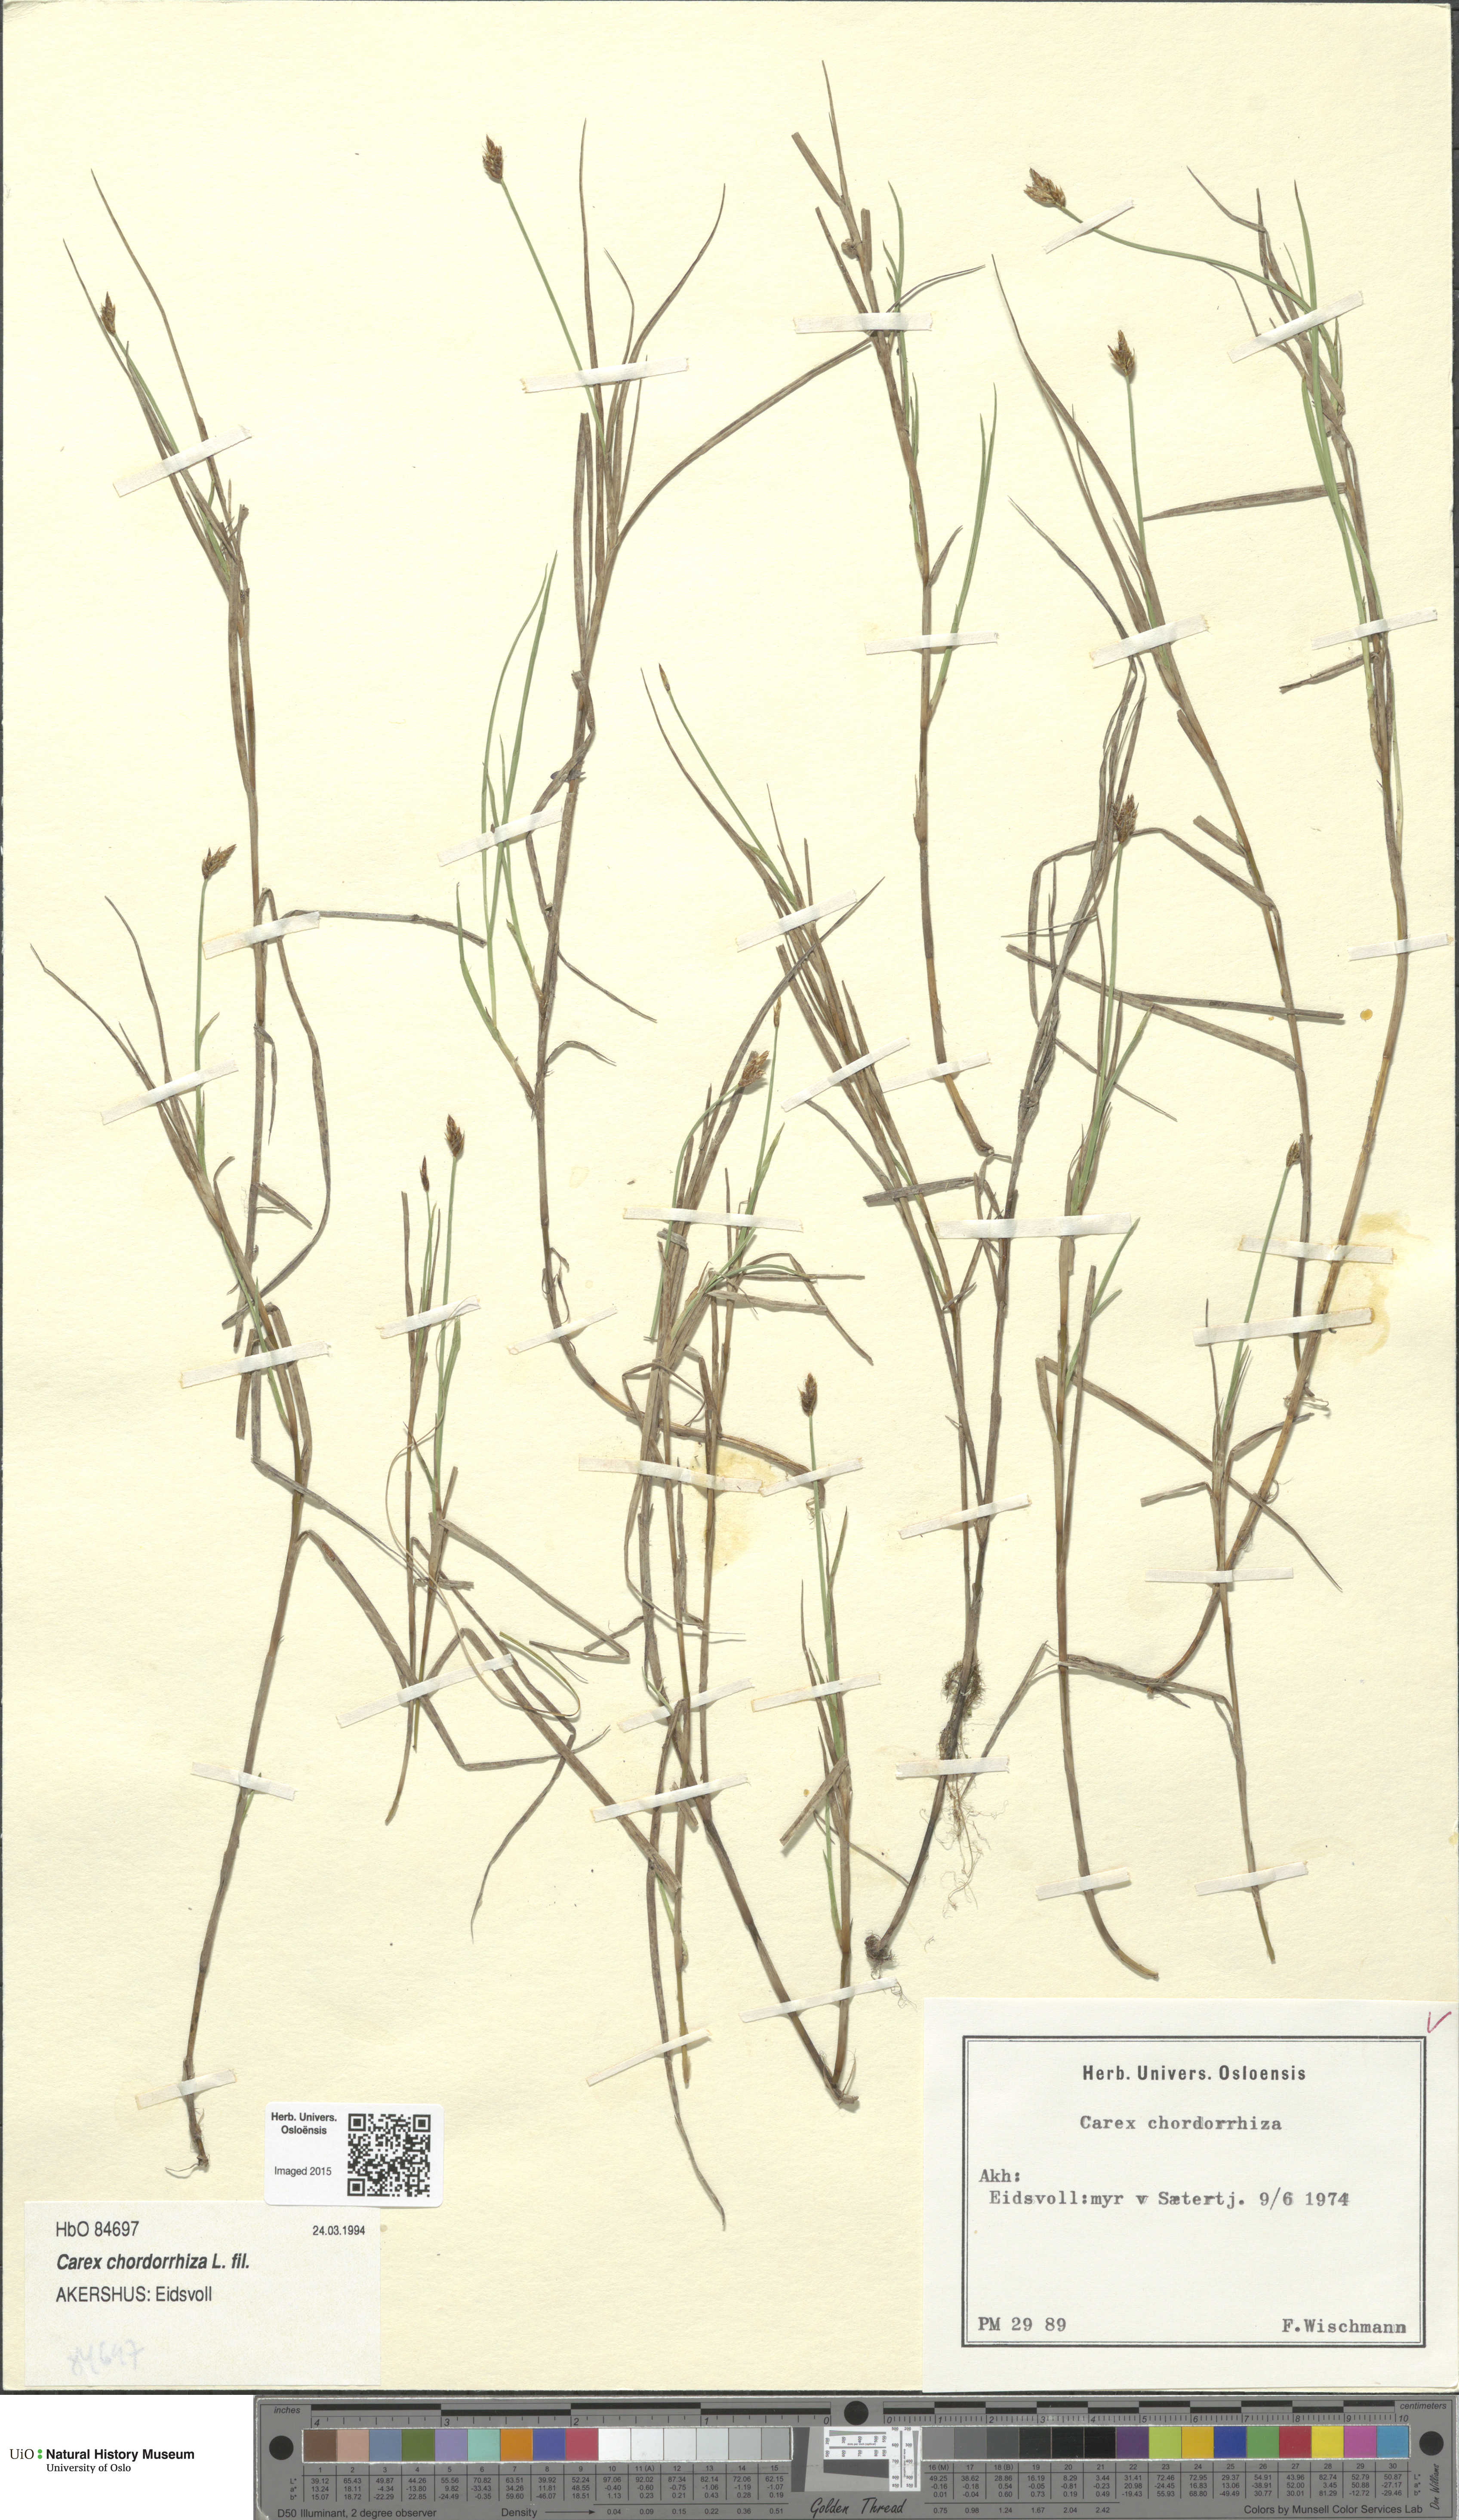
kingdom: Plantae
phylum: Tracheophyta
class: Liliopsida
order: Poales
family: Cyperaceae
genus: Carex
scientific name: Carex chordorrhiza
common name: String sedge
